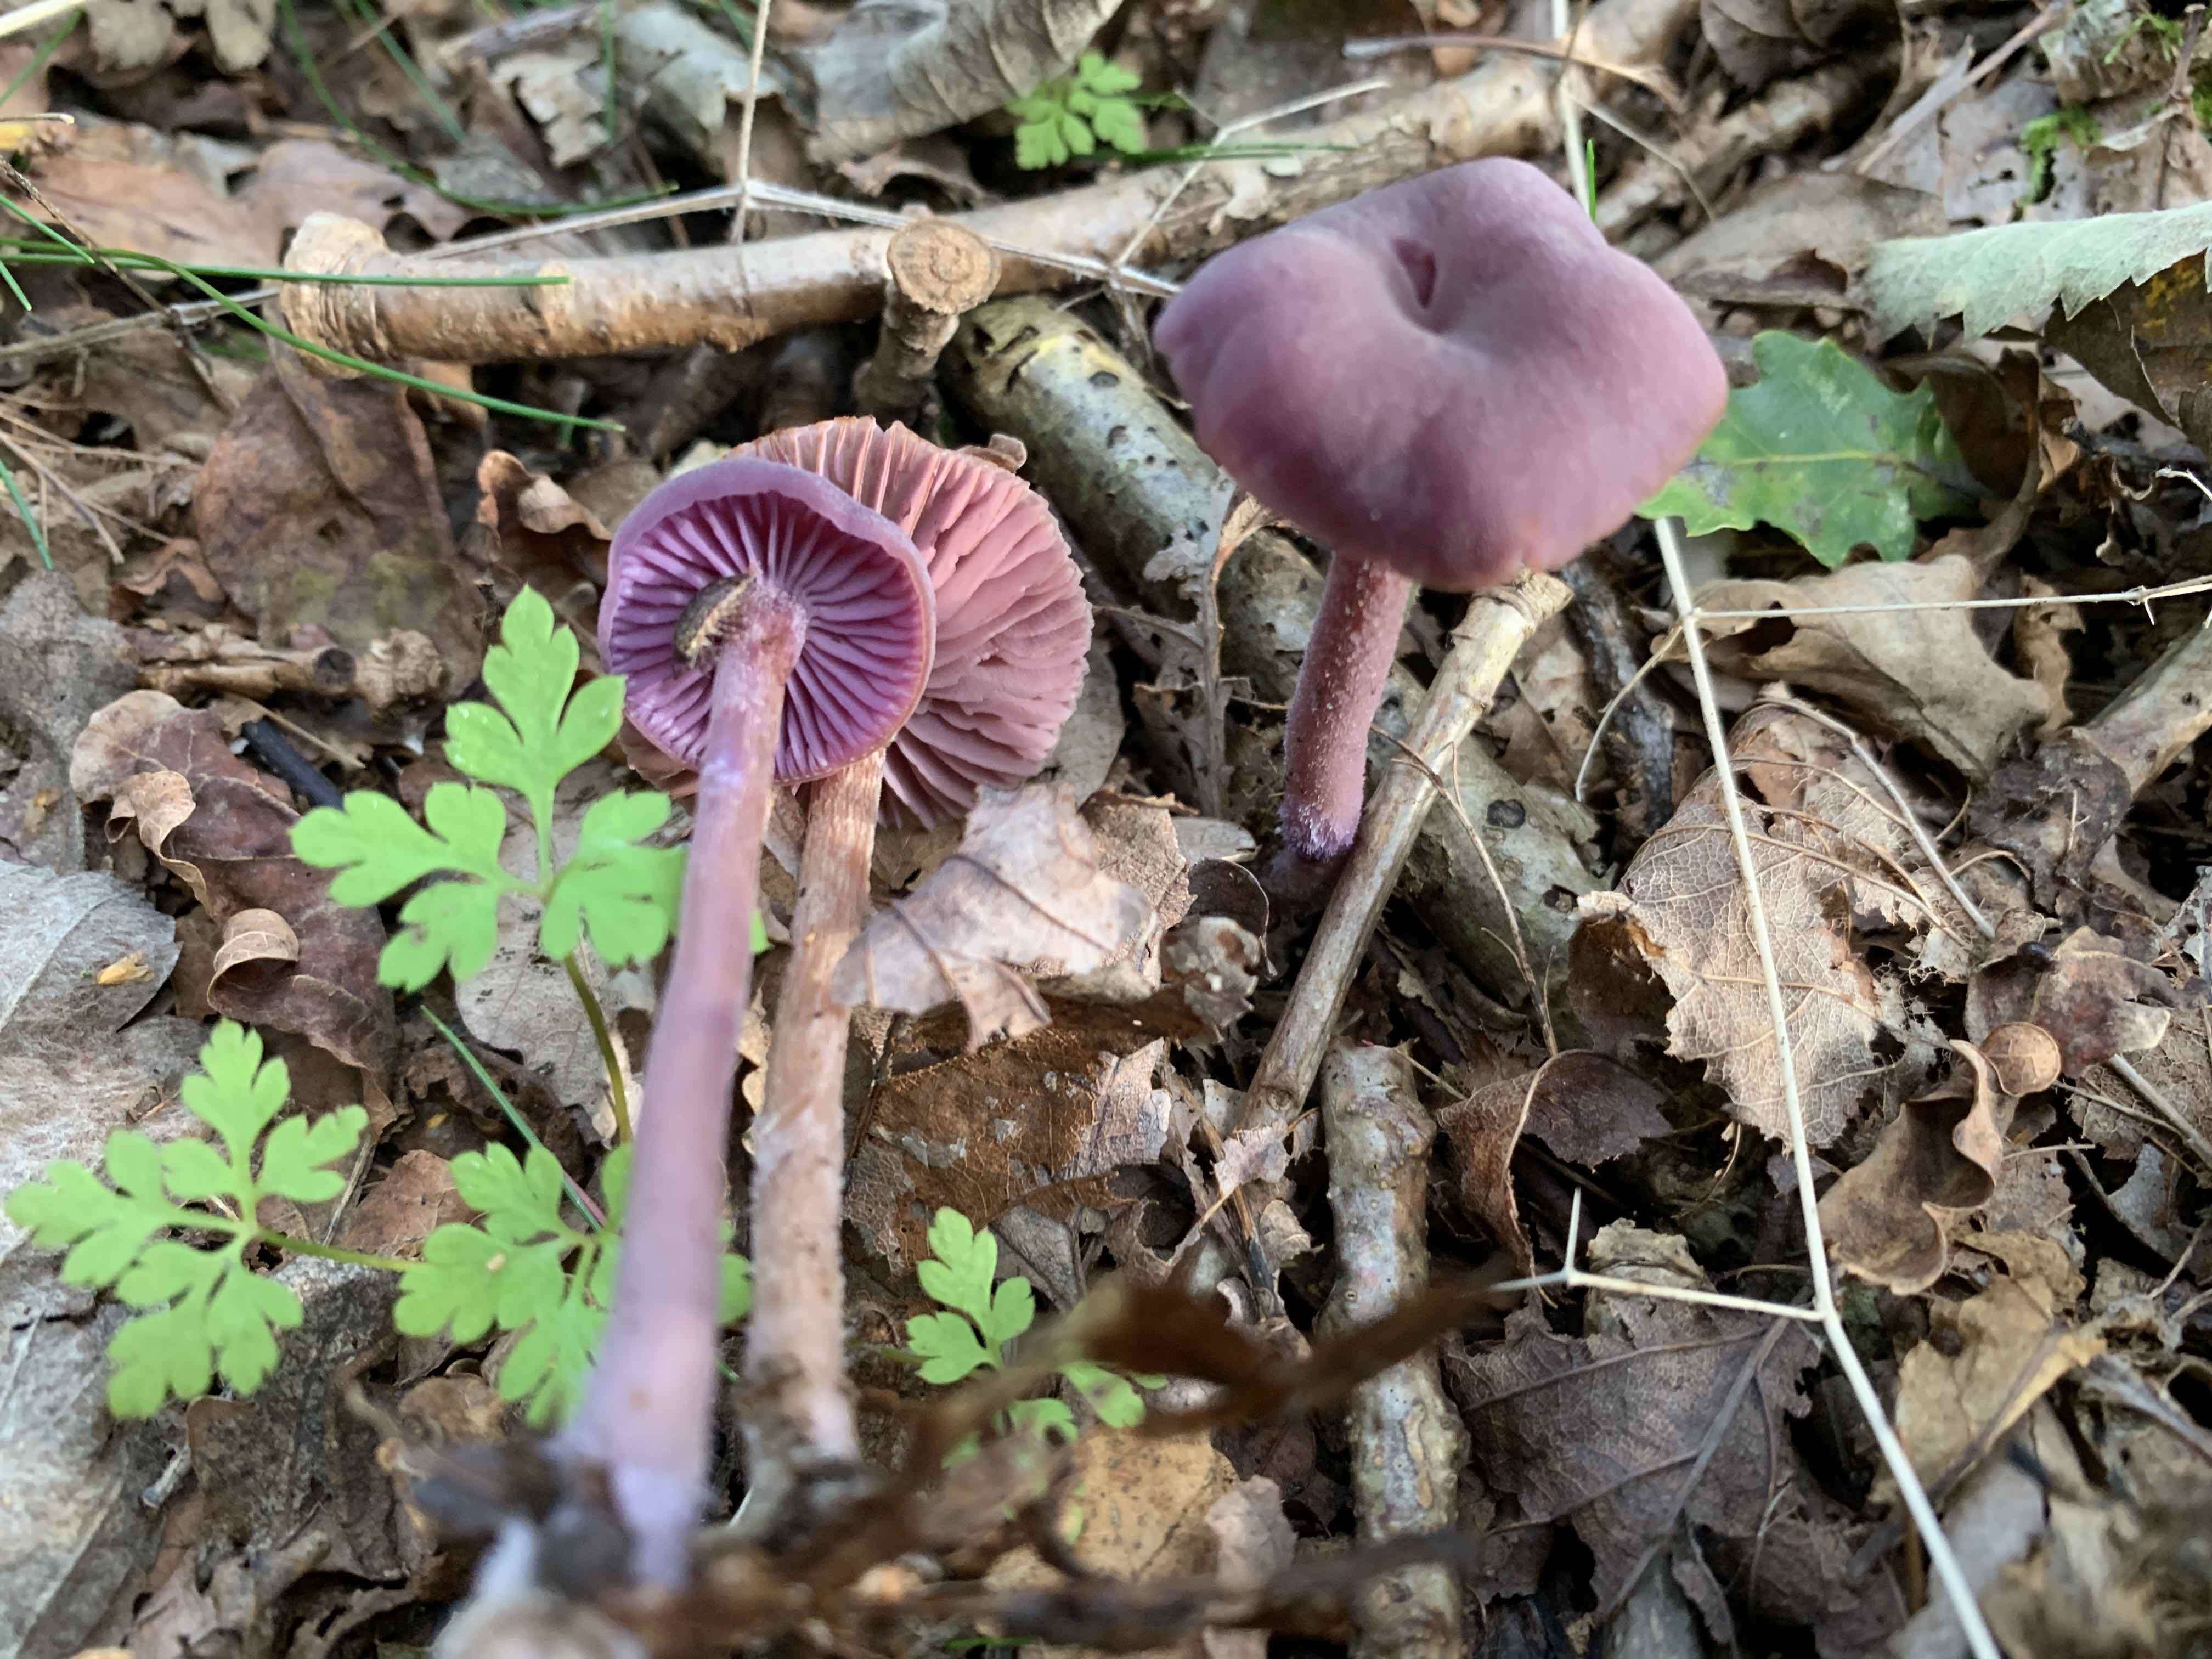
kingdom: Fungi
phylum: Basidiomycota
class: Agaricomycetes
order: Agaricales
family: Hydnangiaceae
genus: Laccaria
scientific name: Laccaria amethystina
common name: violet ametysthat
